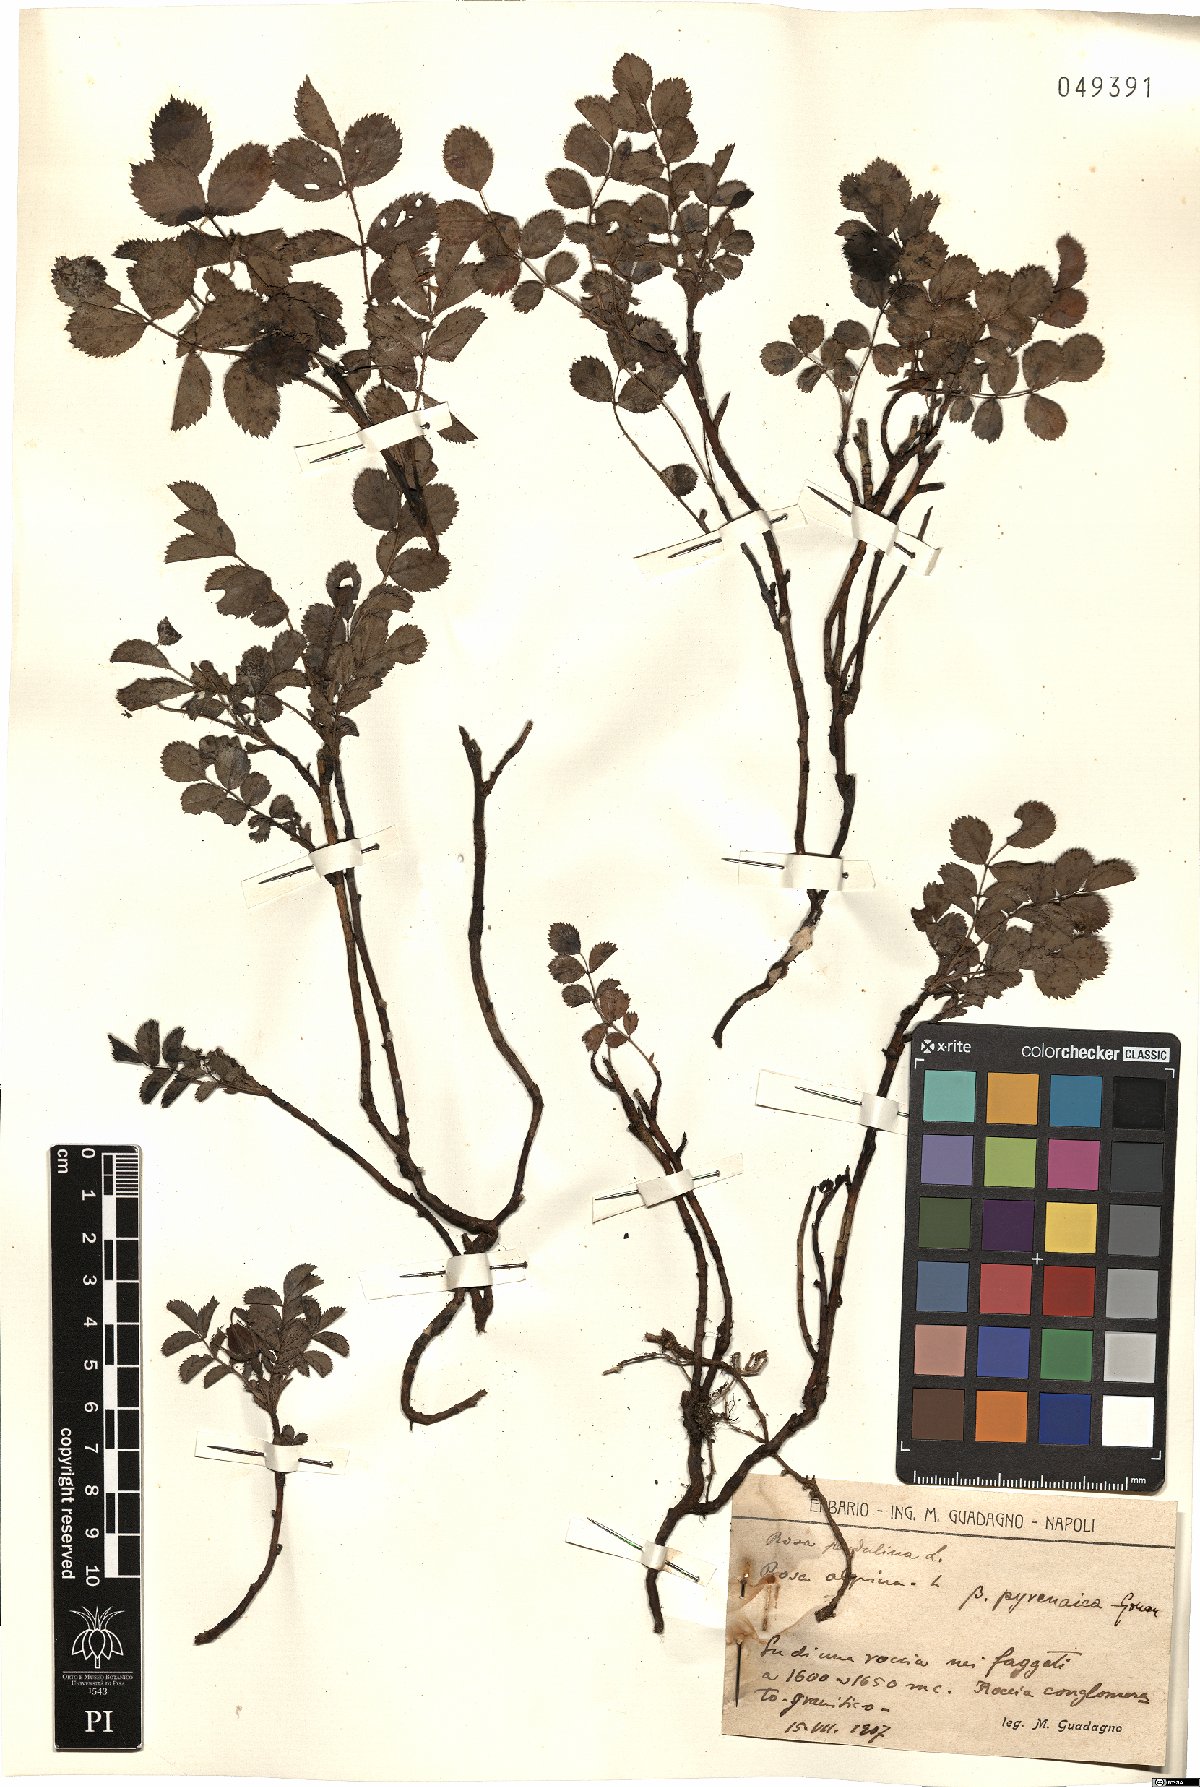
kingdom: Plantae
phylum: Tracheophyta
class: Magnoliopsida
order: Rosales
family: Rosaceae
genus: Rosa
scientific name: Rosa pendulina
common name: Alpine rose
